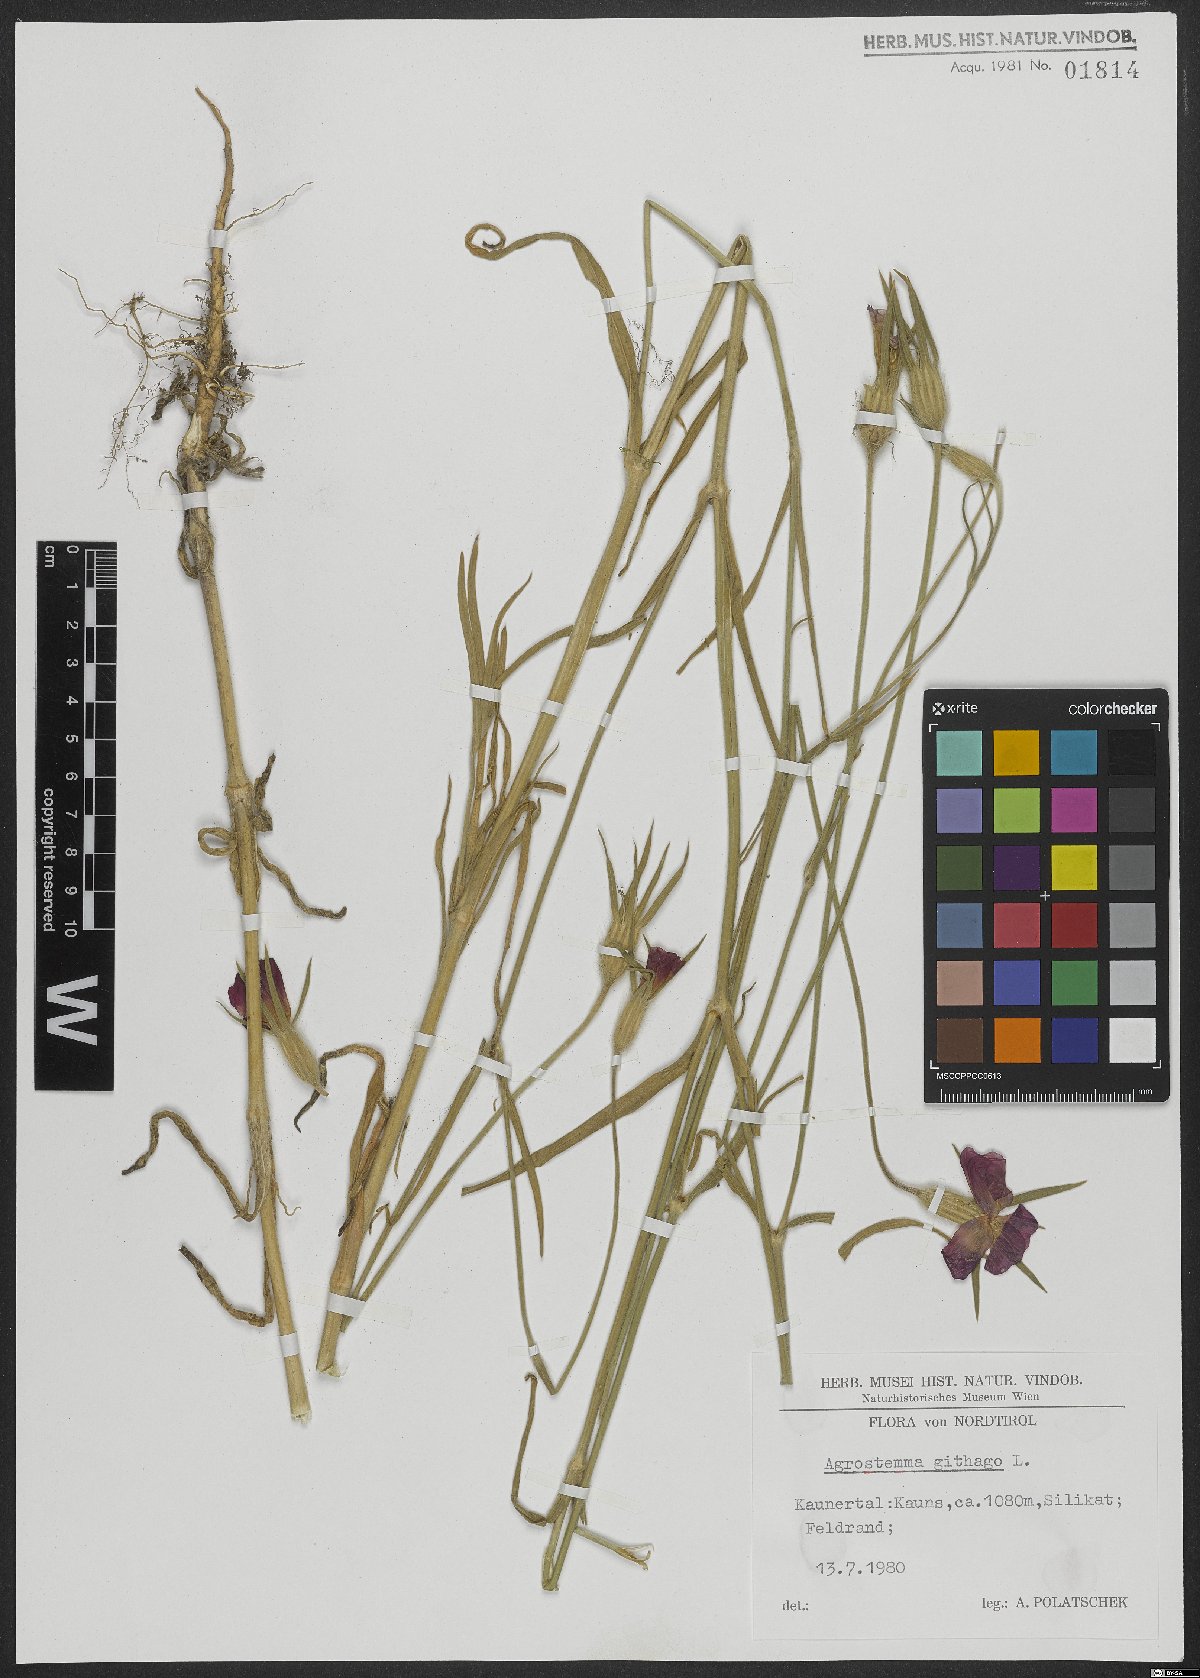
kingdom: Plantae
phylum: Tracheophyta
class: Magnoliopsida
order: Caryophyllales
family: Caryophyllaceae
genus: Agrostemma
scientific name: Agrostemma githago
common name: Common corncockle
